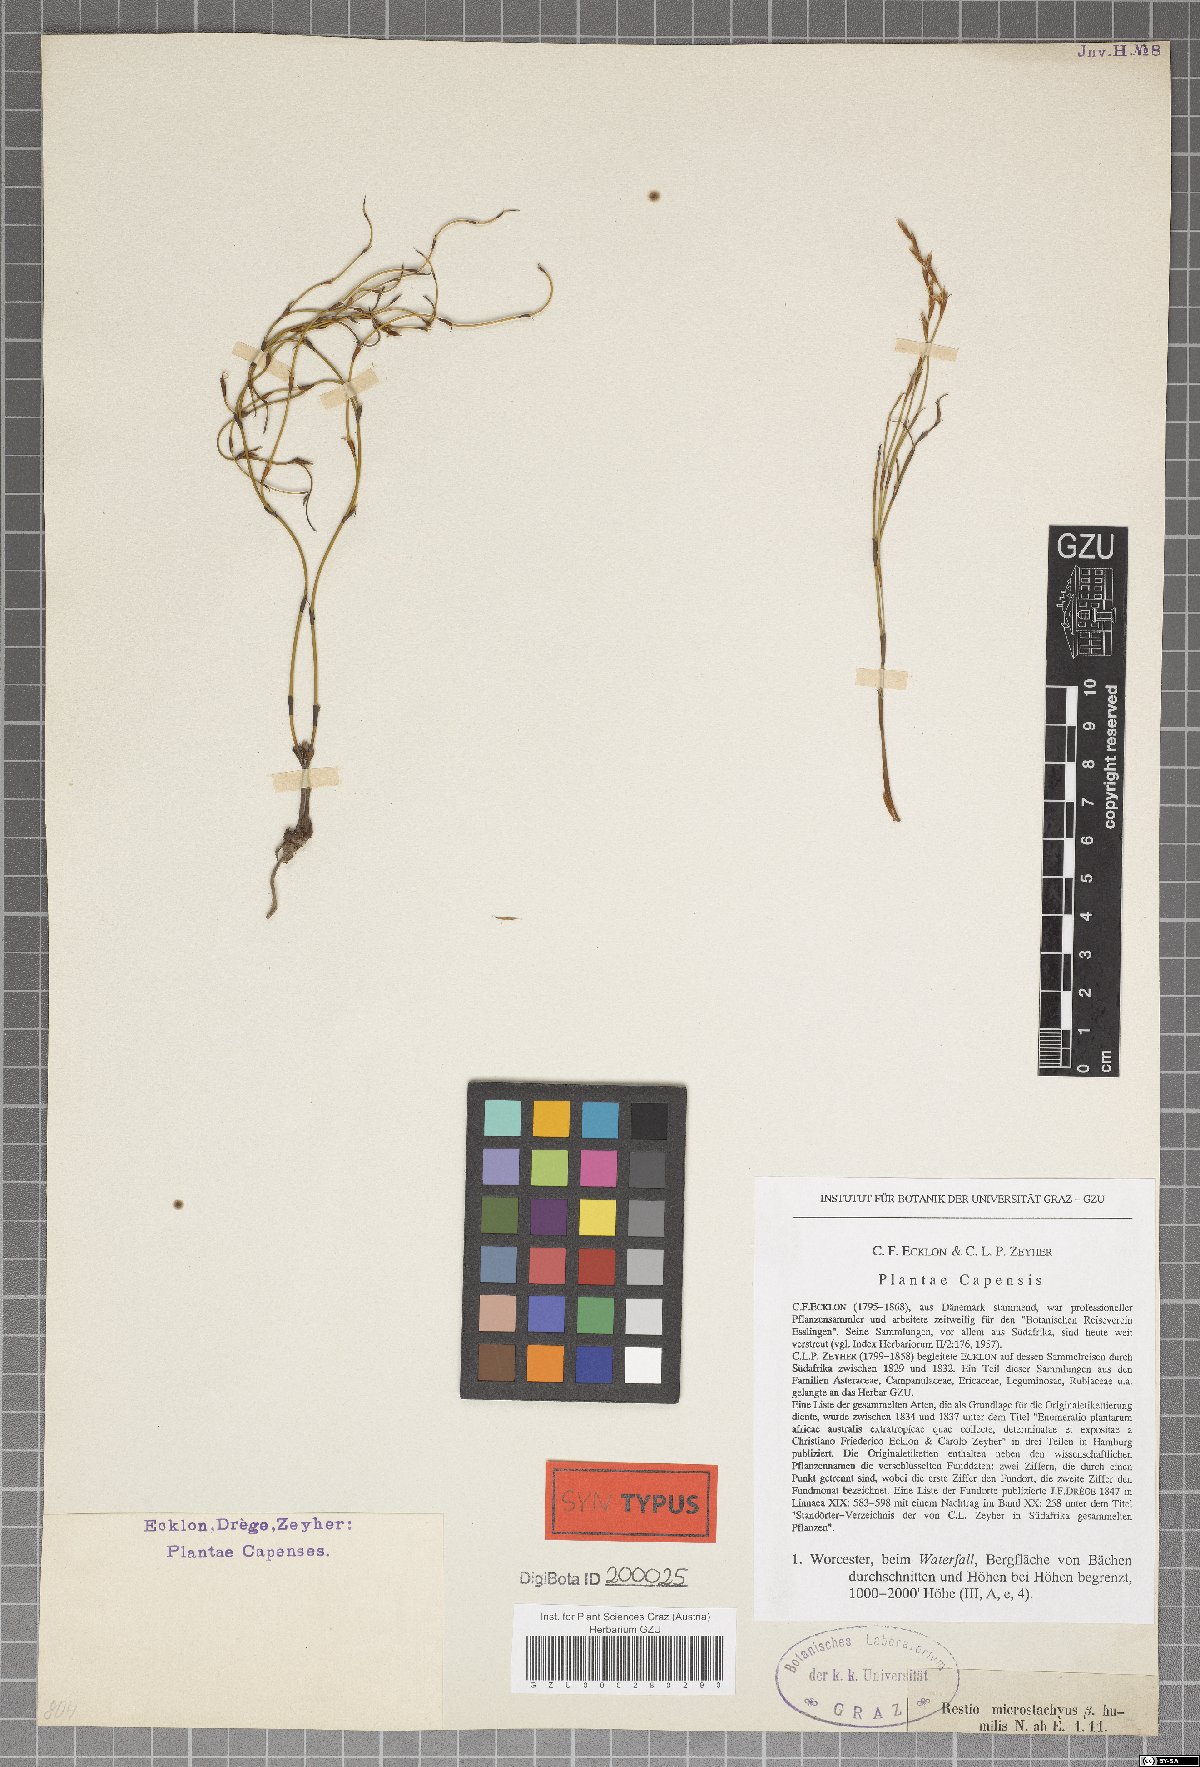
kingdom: Plantae
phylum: Tracheophyta
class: Liliopsida
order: Poales
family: Restionaceae
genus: Restio
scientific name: Restio gaudichaudianus
